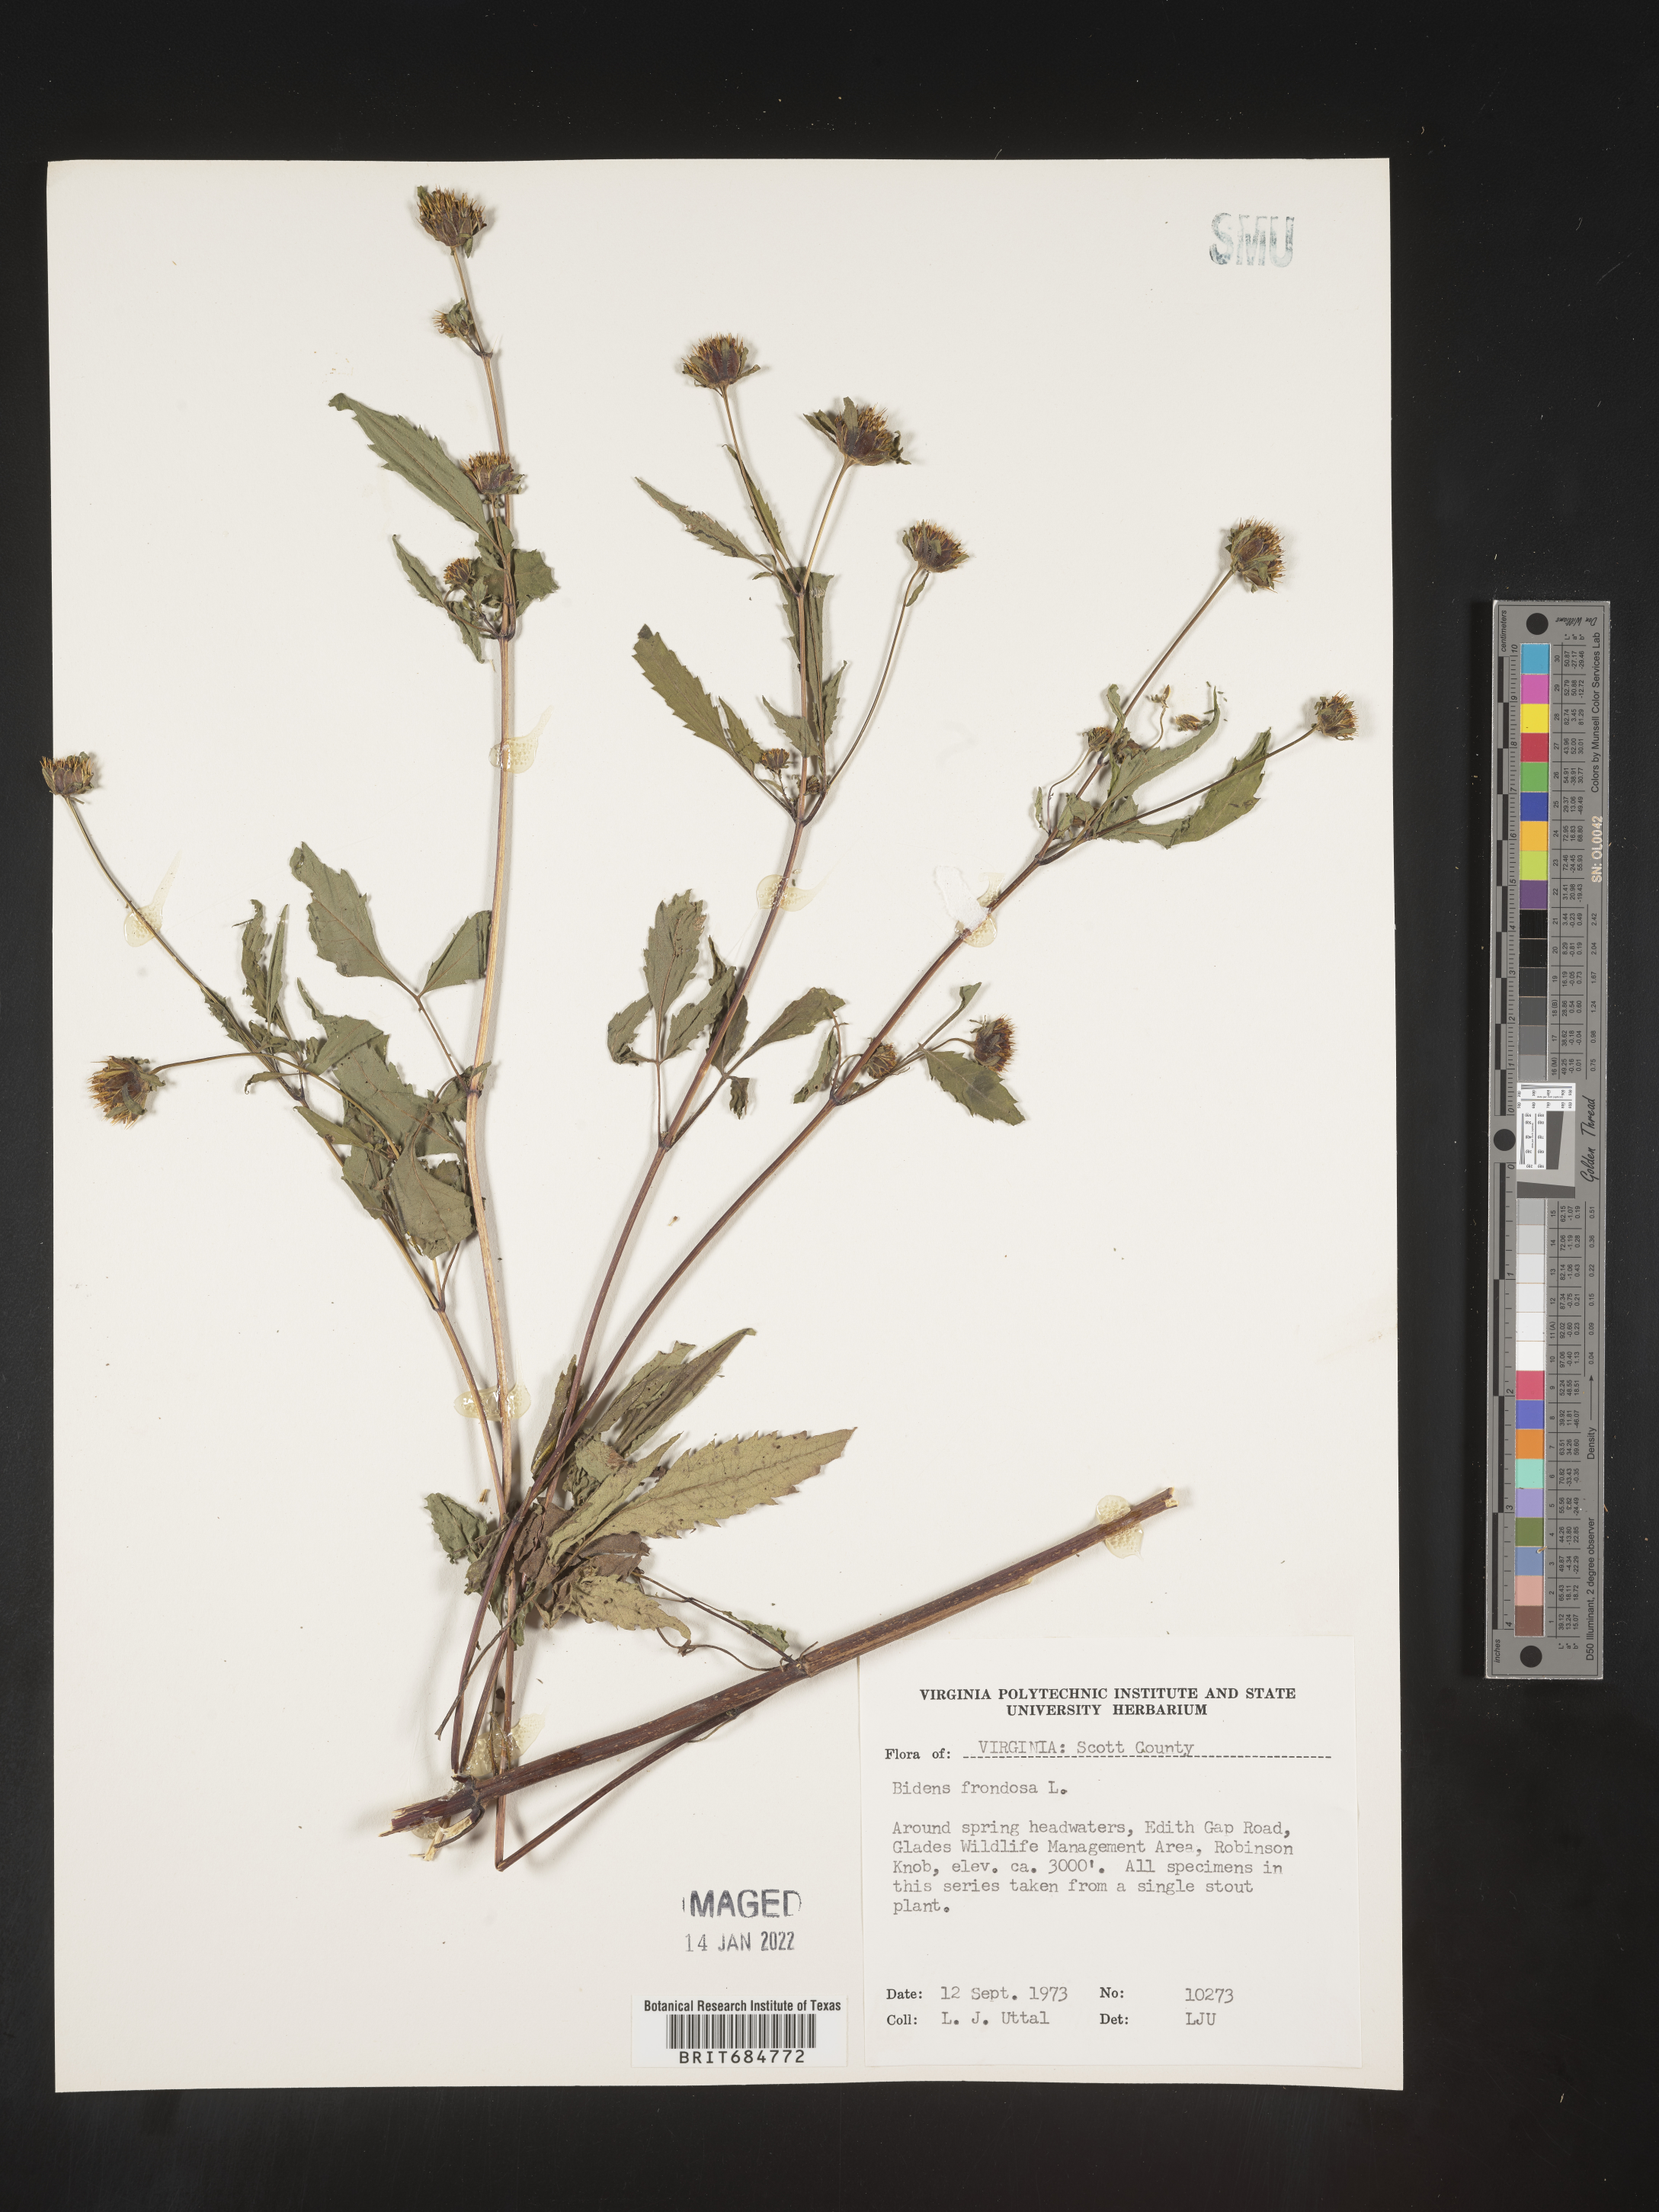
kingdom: Plantae
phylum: Tracheophyta
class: Magnoliopsida
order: Asterales
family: Asteraceae
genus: Bidens
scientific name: Bidens frondosa
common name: Beggarticks
